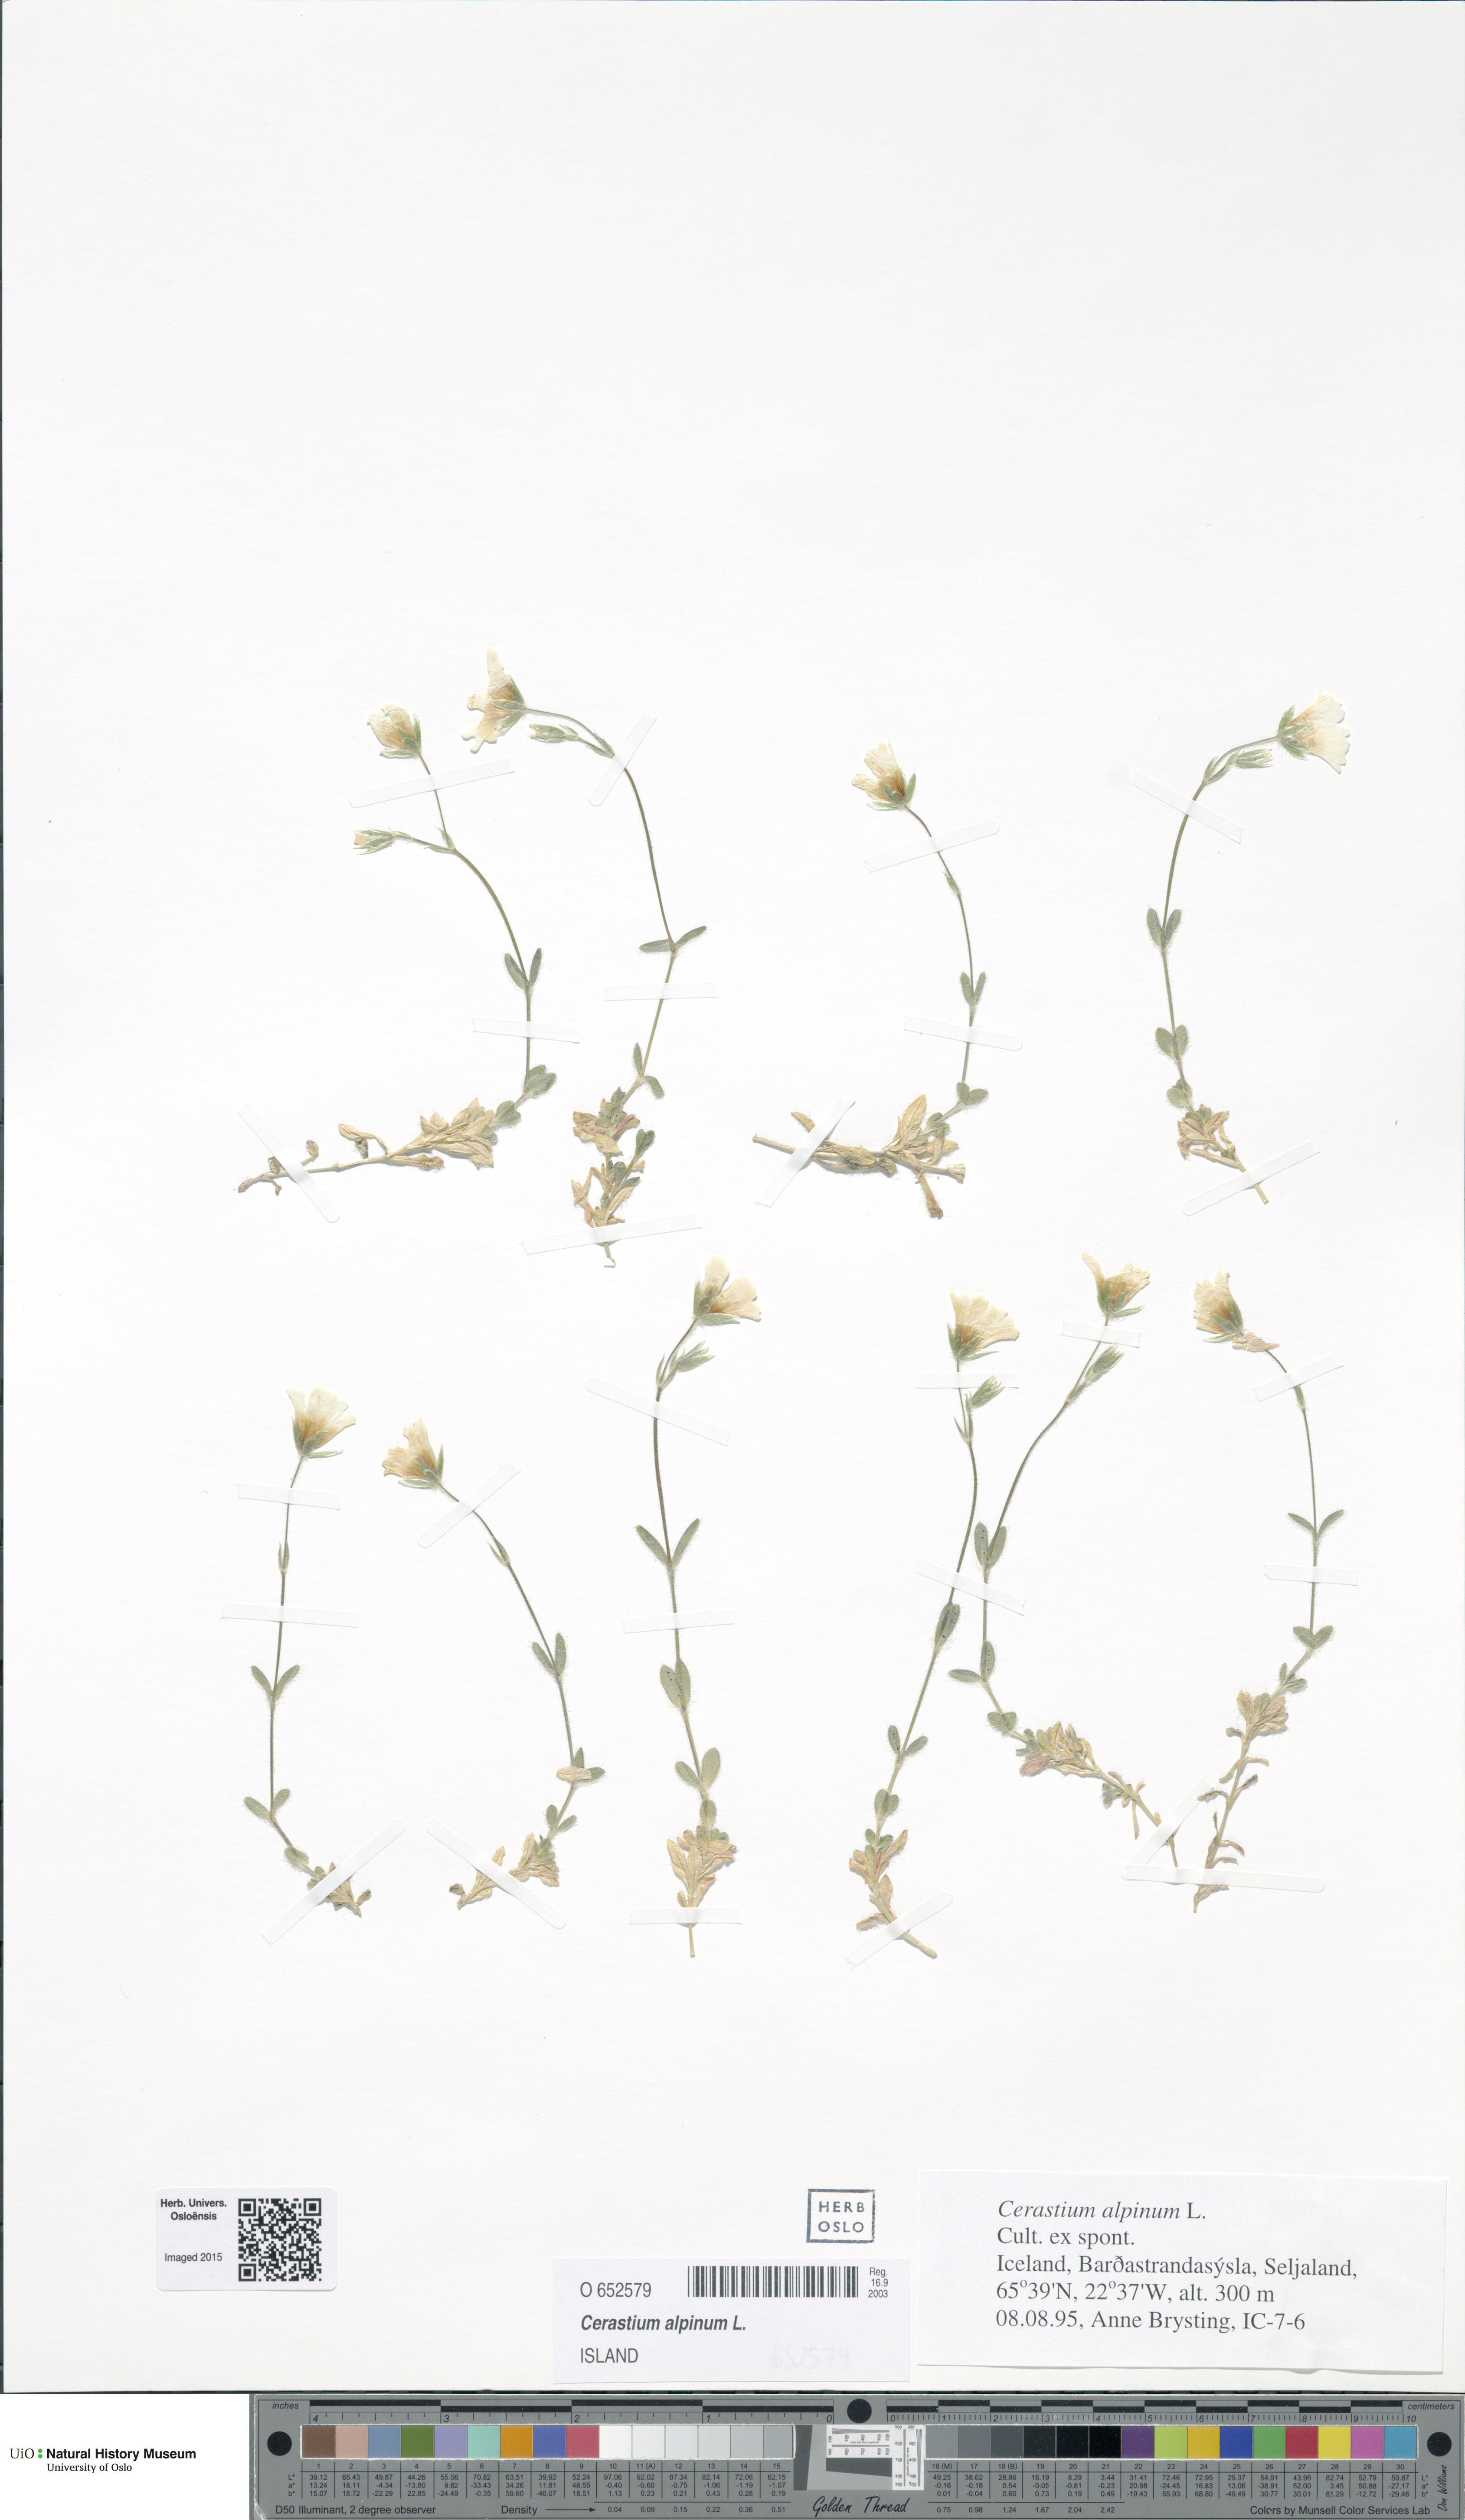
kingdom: Plantae
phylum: Tracheophyta
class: Magnoliopsida
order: Caryophyllales
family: Caryophyllaceae
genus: Cerastium
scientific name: Cerastium alpinum
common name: Alpine mouse-ear
